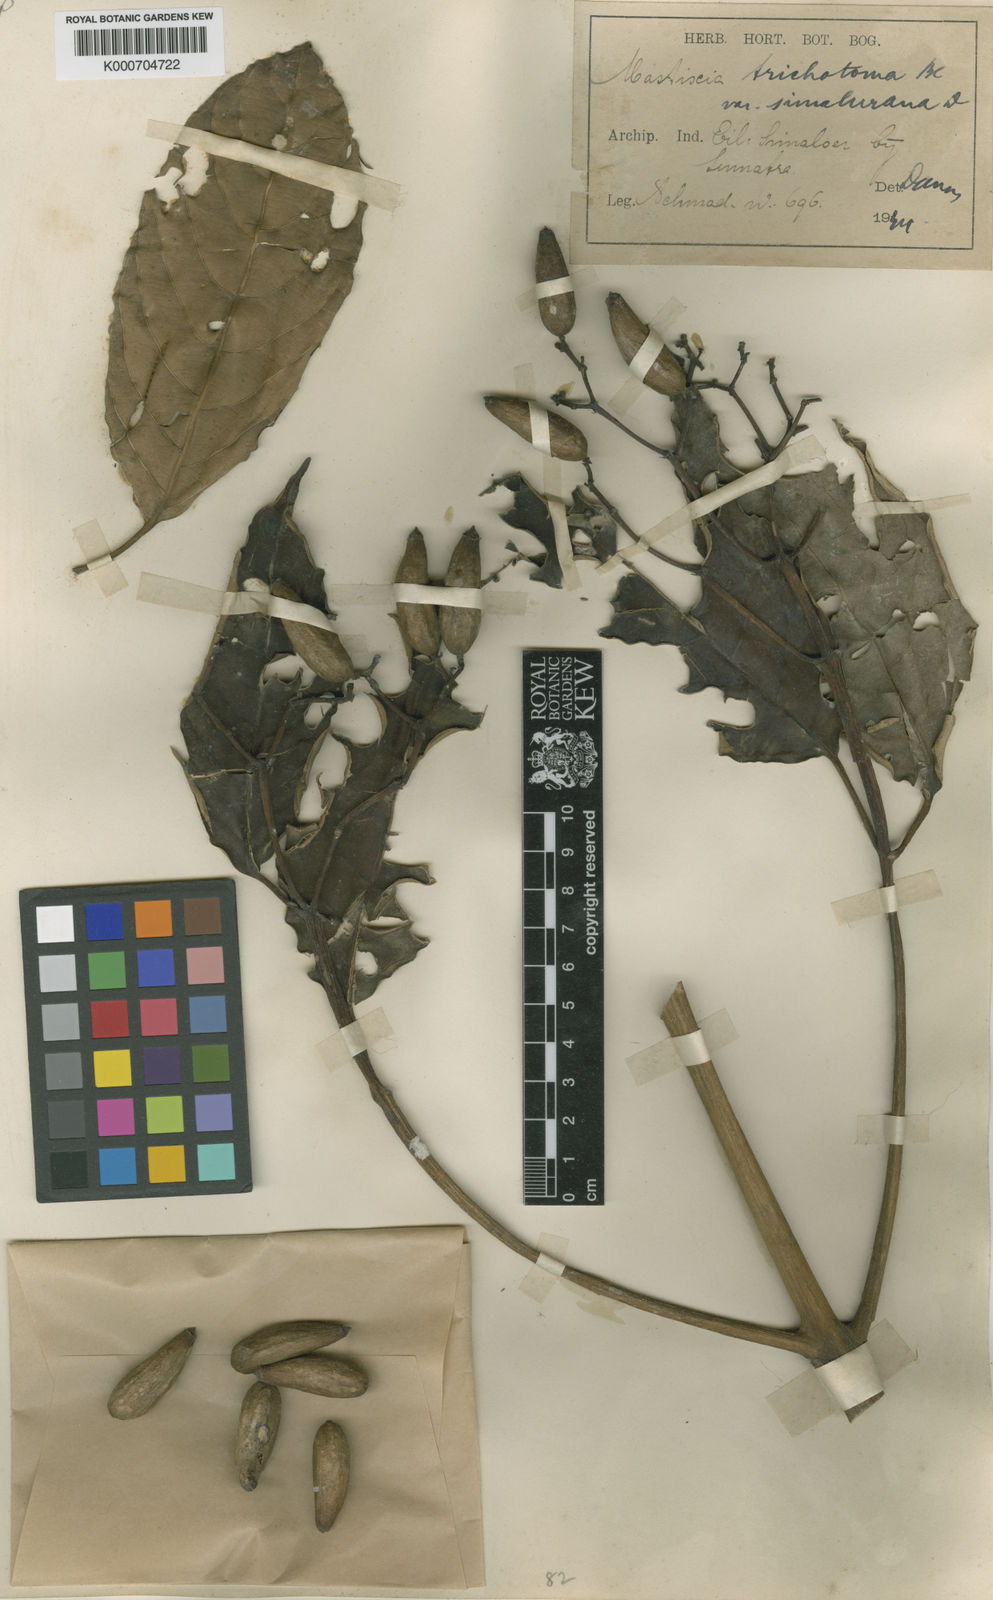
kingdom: Plantae
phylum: Tracheophyta
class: Magnoliopsida
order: Cornales
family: Nyssaceae
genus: Mastixia
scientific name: Mastixia trichotoma
